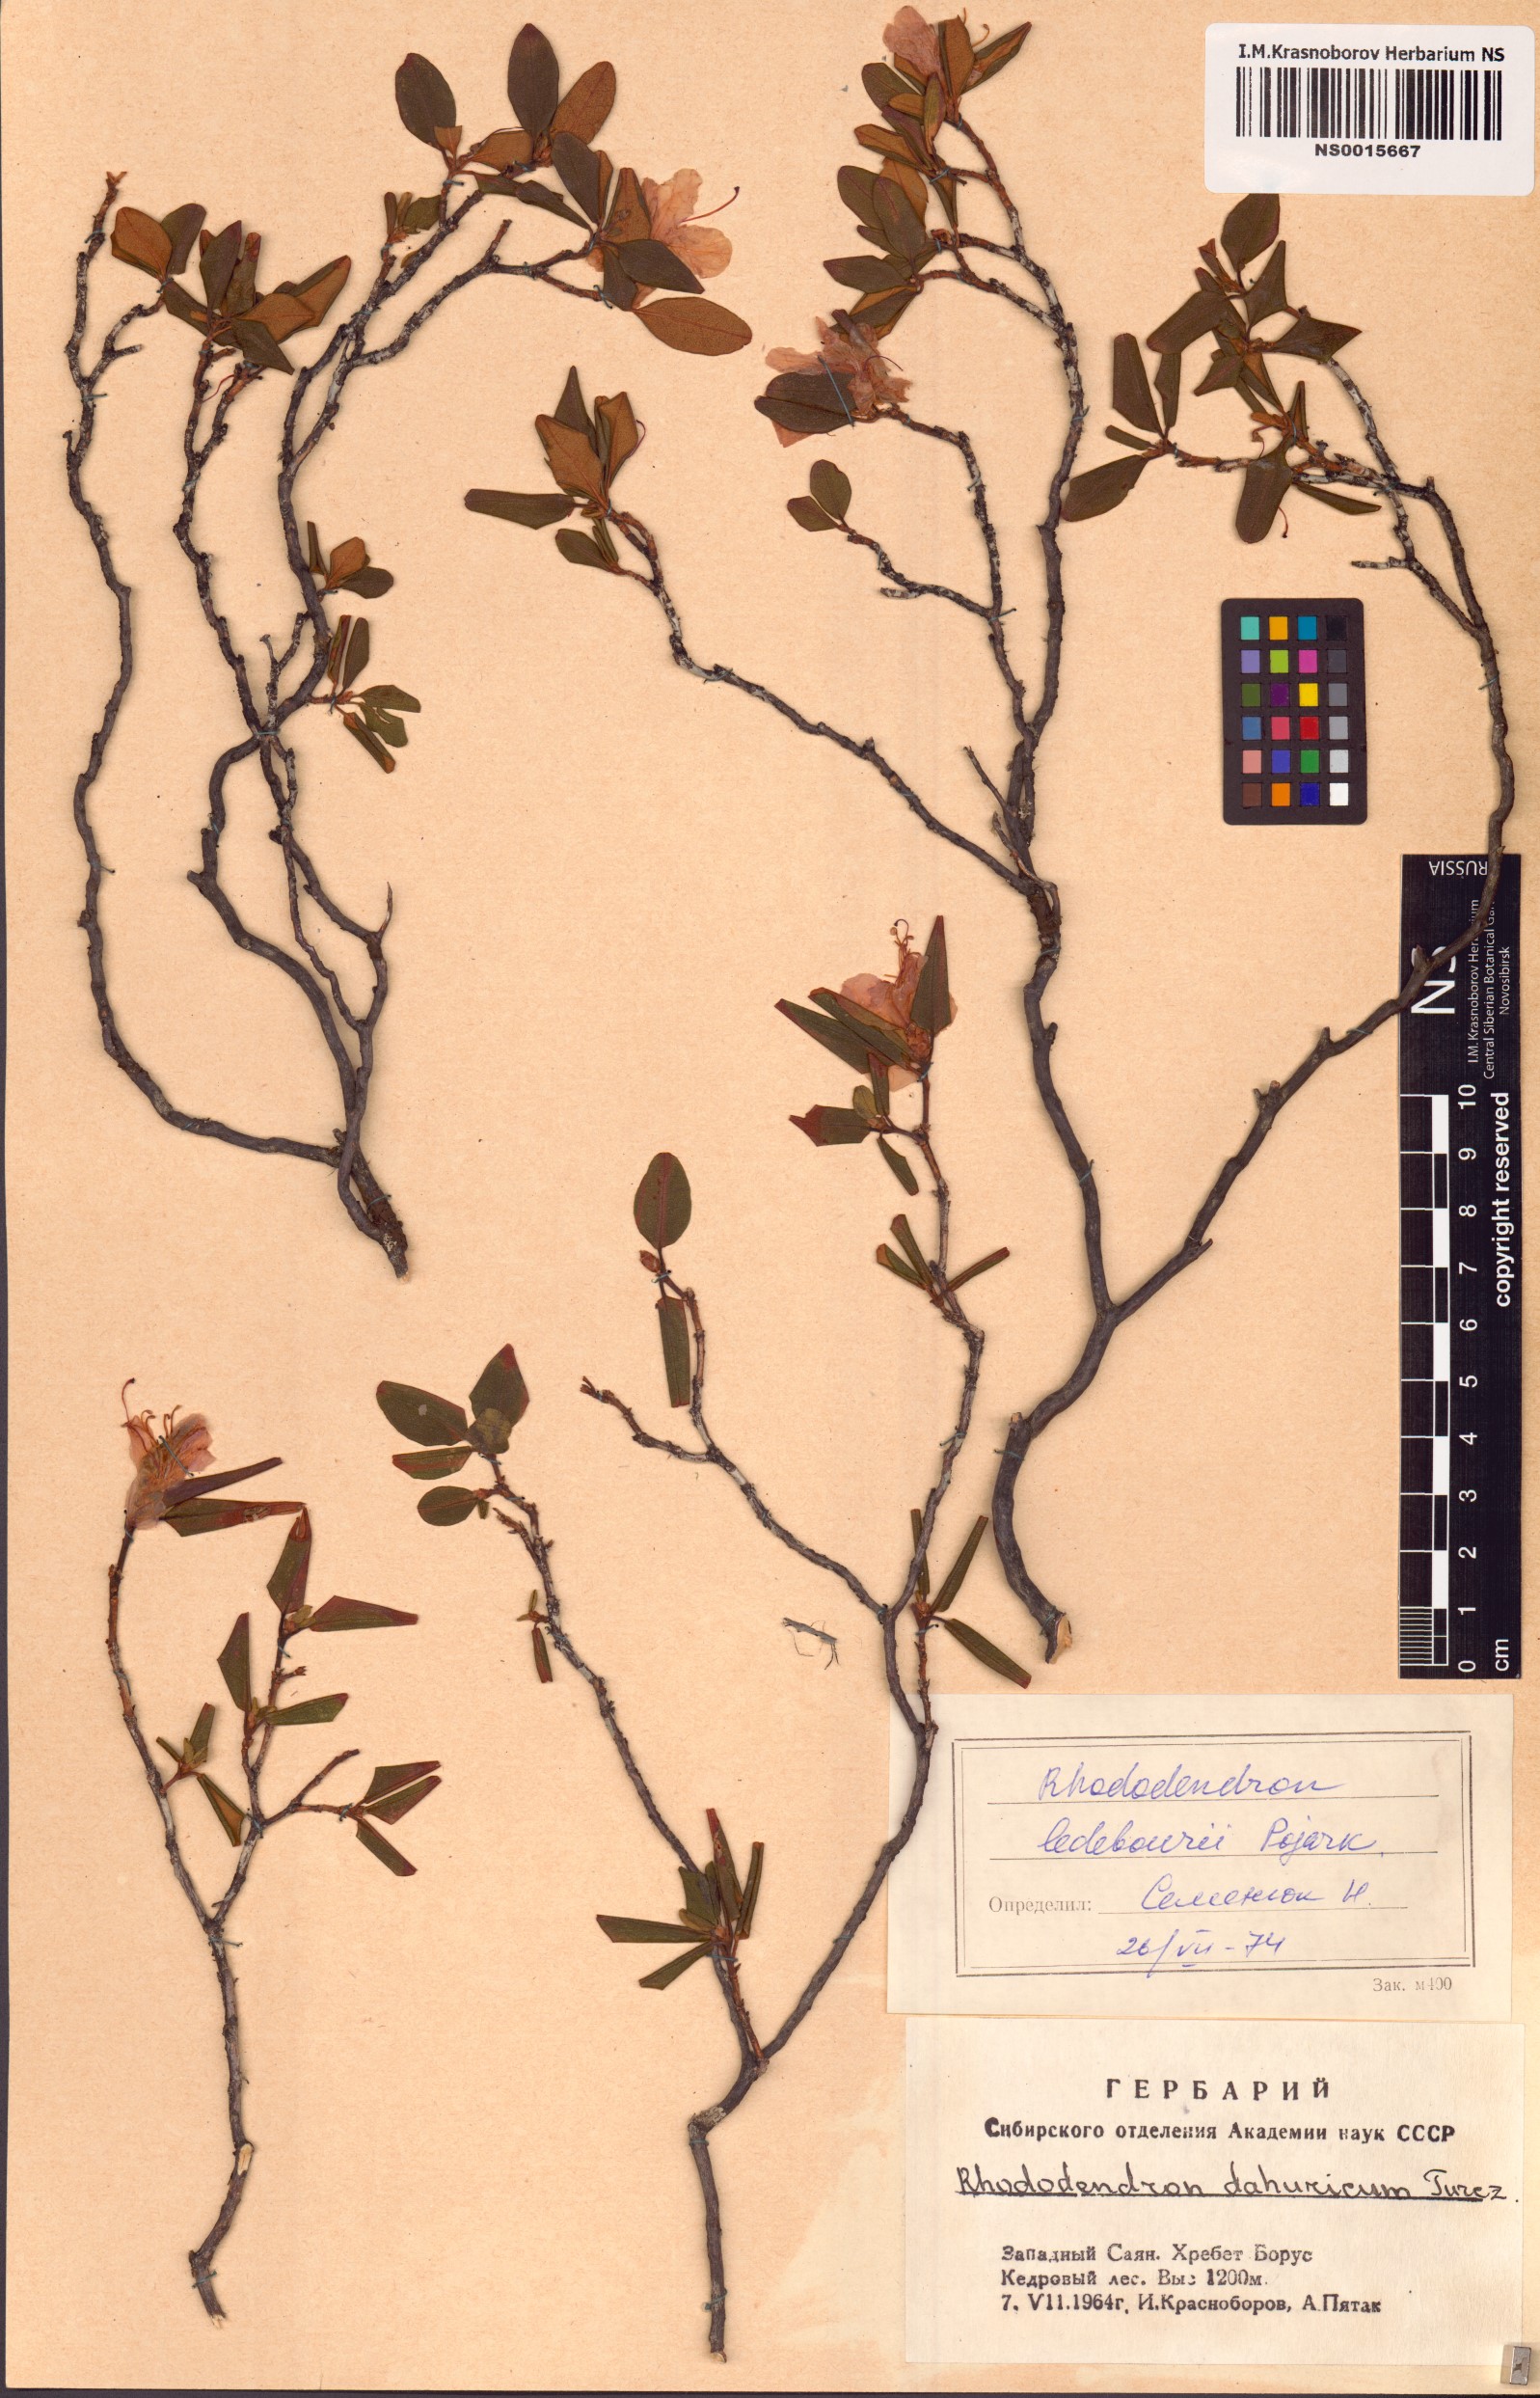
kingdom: Plantae
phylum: Tracheophyta
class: Magnoliopsida
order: Ericales
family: Ericaceae
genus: Rhododendron
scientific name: Rhododendron dauricum
